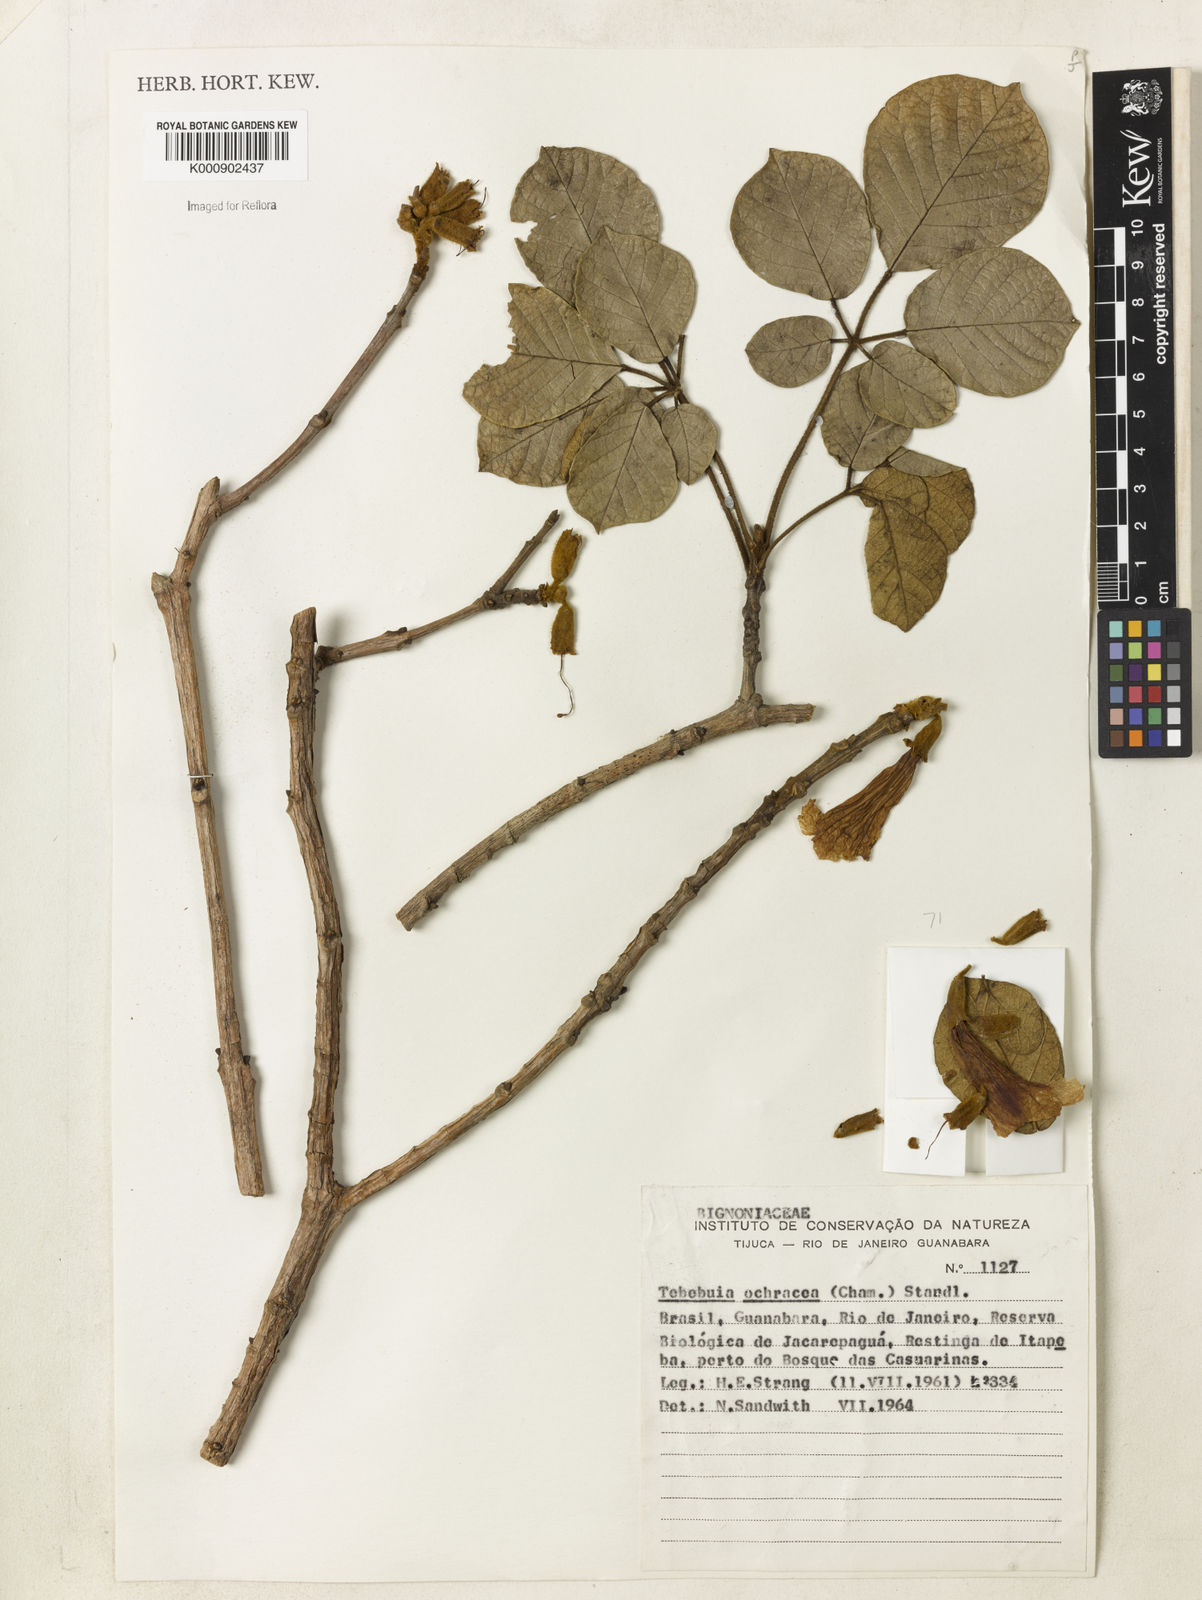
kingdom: Plantae
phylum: Tracheophyta
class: Magnoliopsida
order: Lamiales
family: Bignoniaceae
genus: Handroanthus
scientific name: Handroanthus ochraceus
